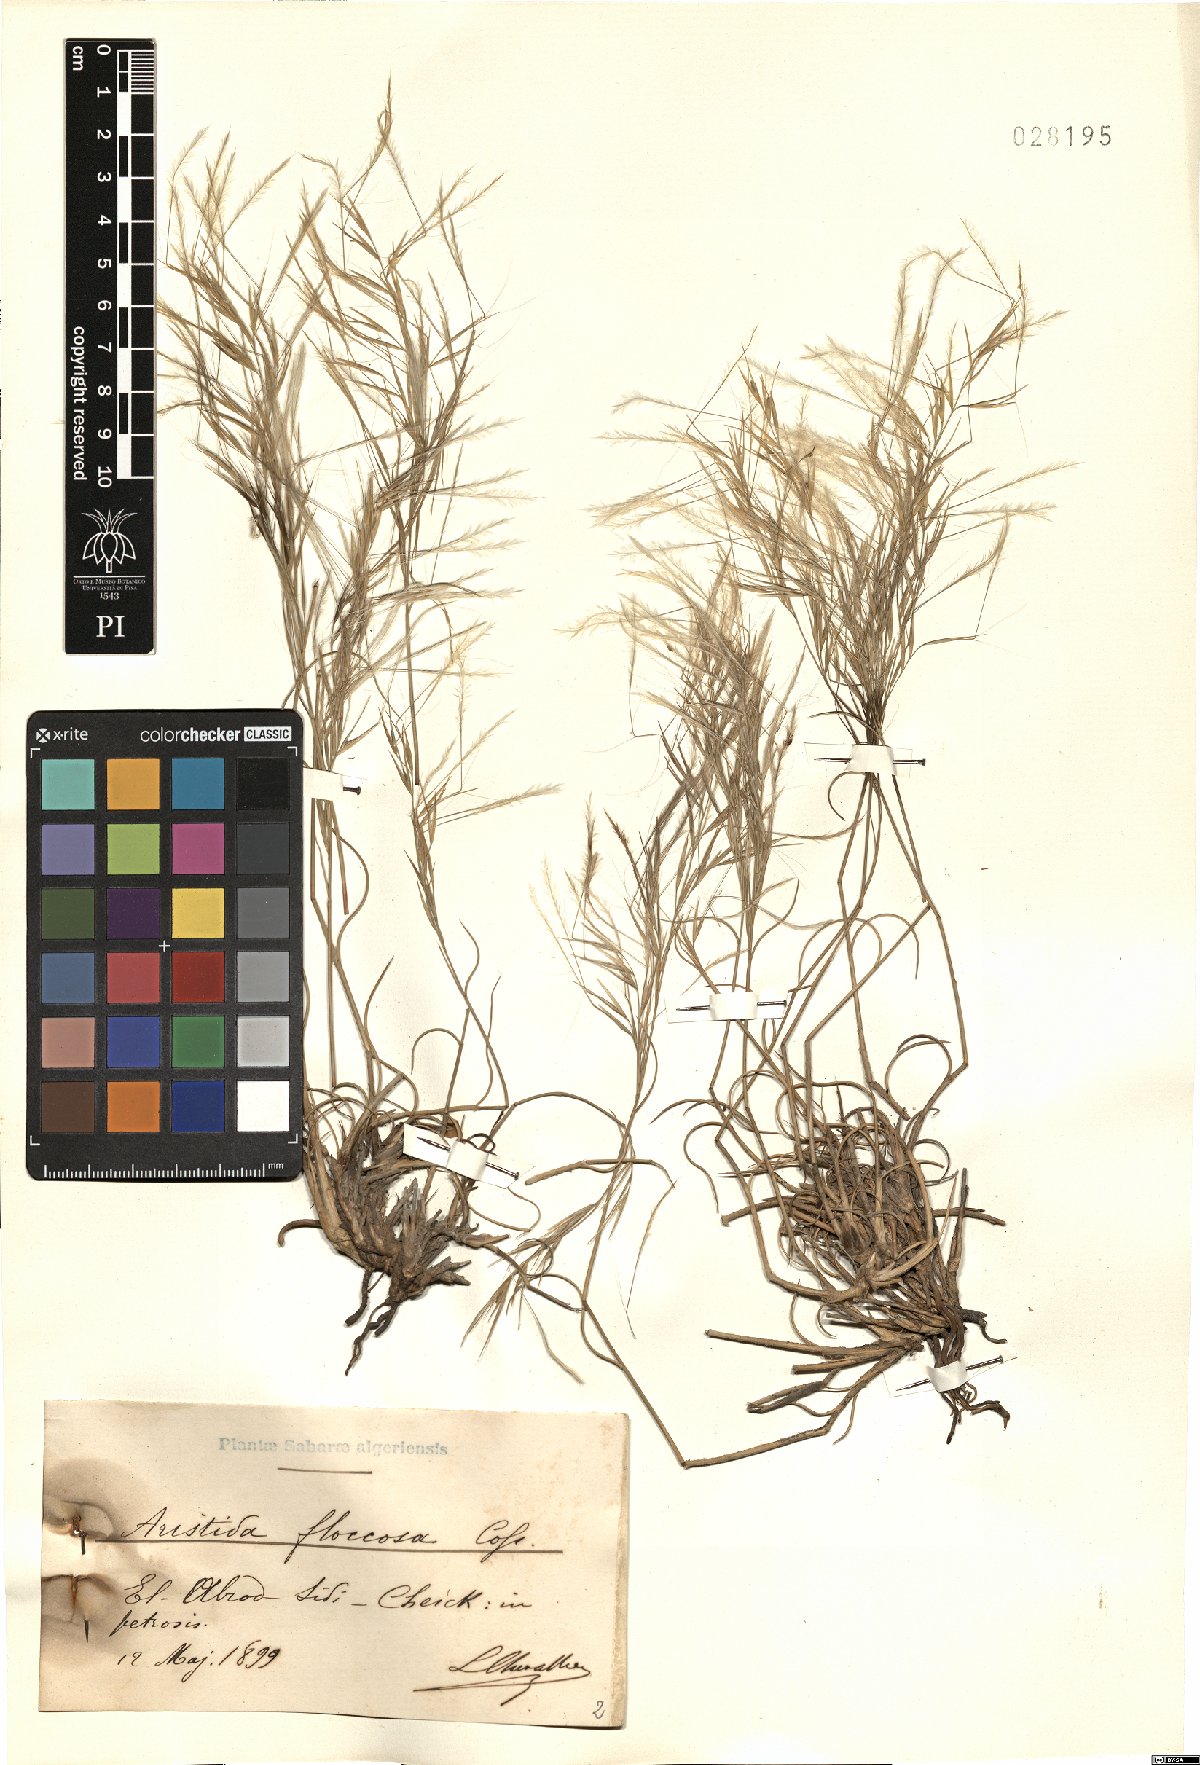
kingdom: Plantae
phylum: Tracheophyta
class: Liliopsida
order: Poales
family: Poaceae
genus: Stipagrostis
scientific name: Stipagrostis plumosa
